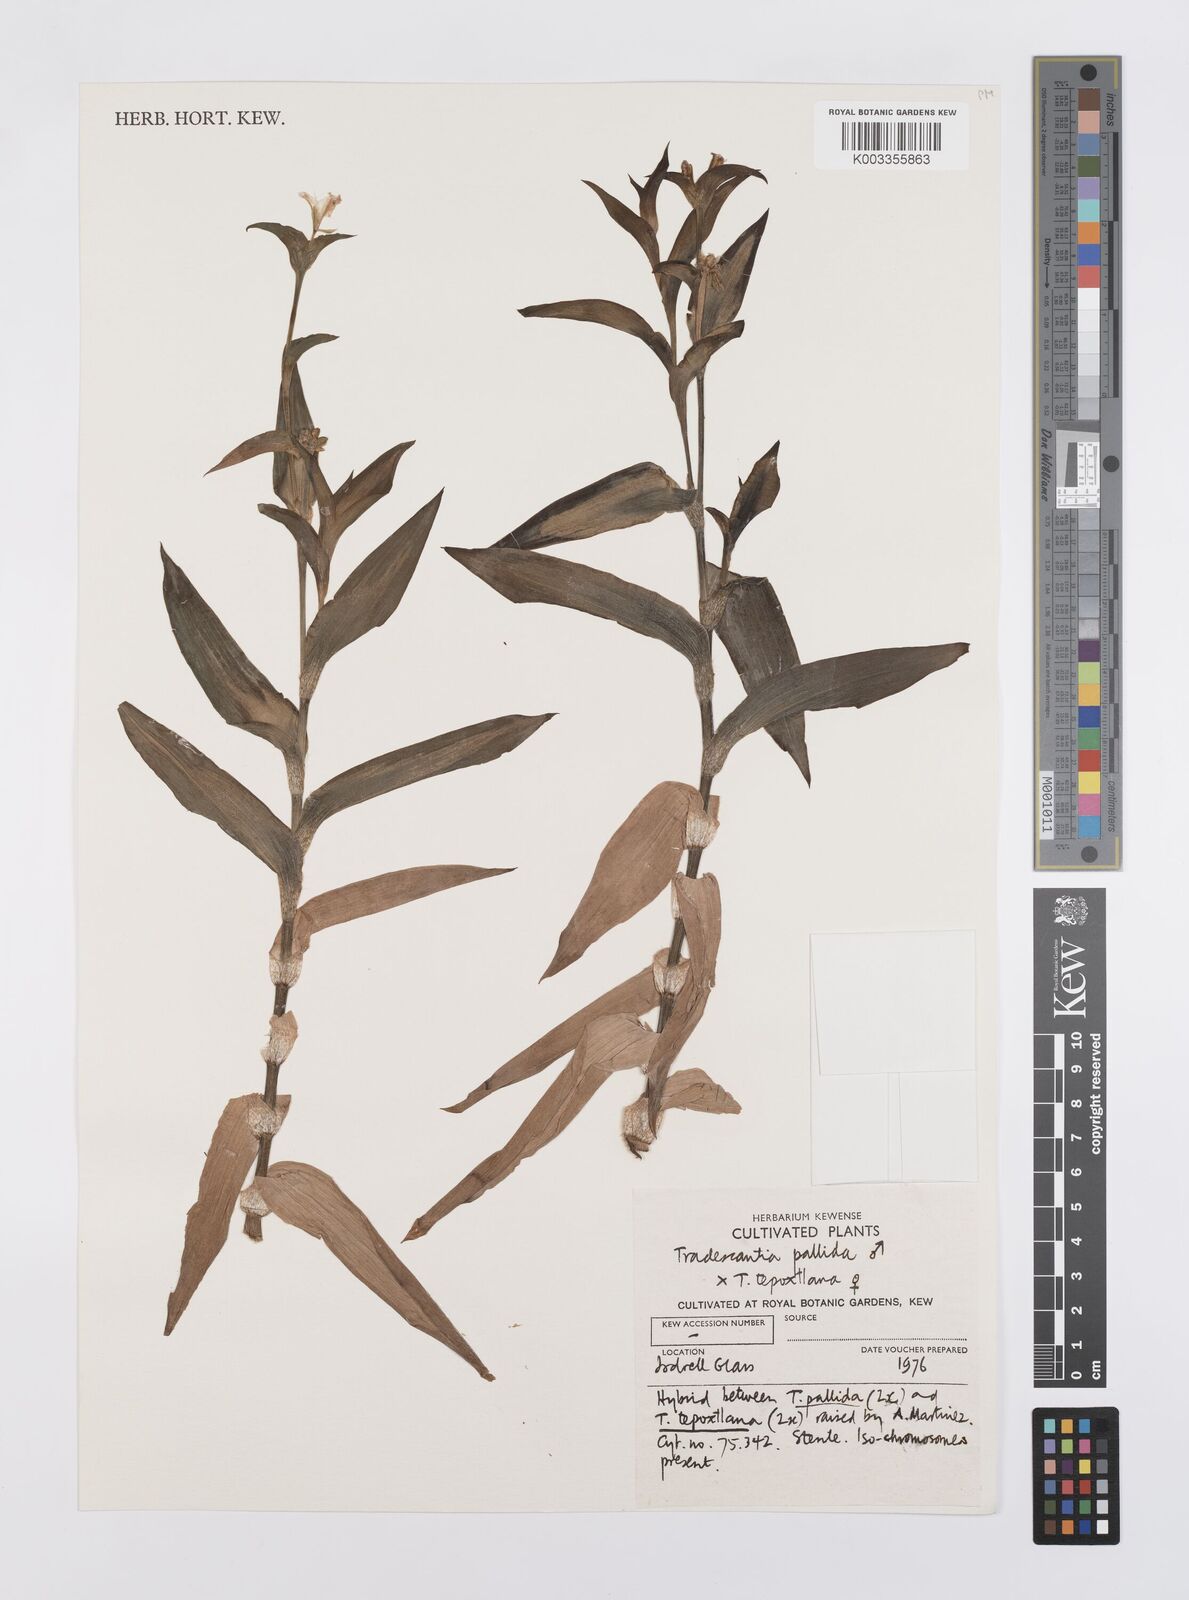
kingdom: Plantae
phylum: Tracheophyta
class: Liliopsida
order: Commelinales
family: Commelinaceae
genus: Tradescantia
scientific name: Tradescantia pallida
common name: Purpleheart
